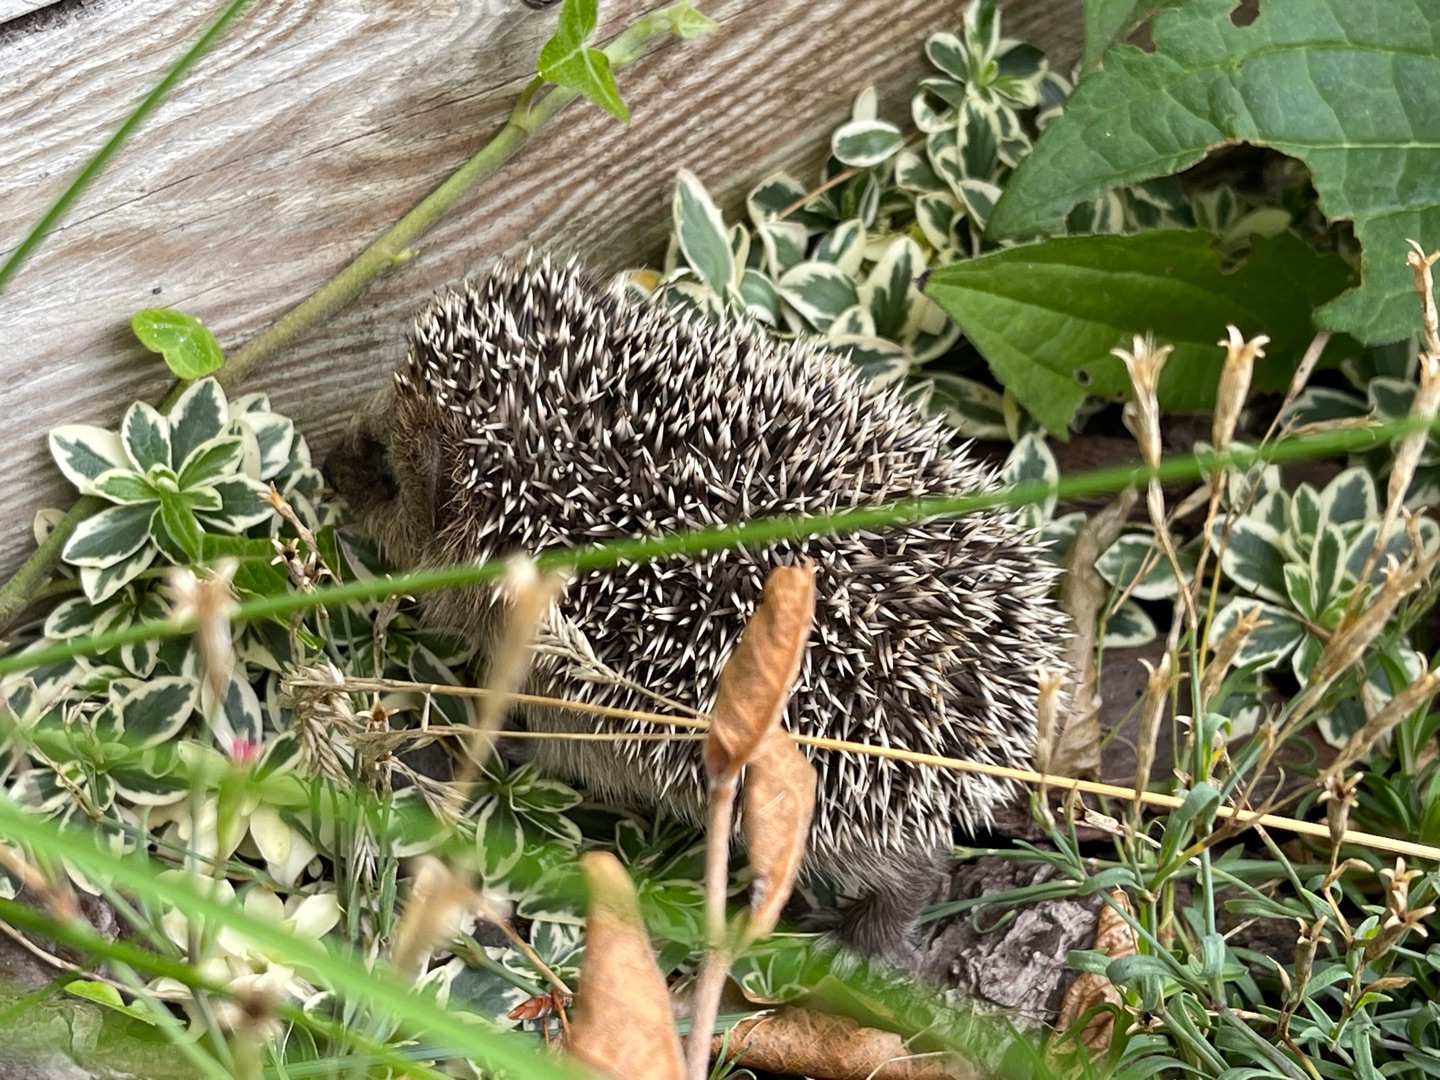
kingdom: Animalia
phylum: Chordata
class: Mammalia
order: Erinaceomorpha
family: Erinaceidae
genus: Erinaceus
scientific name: Erinaceus europaeus
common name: Pindsvin
